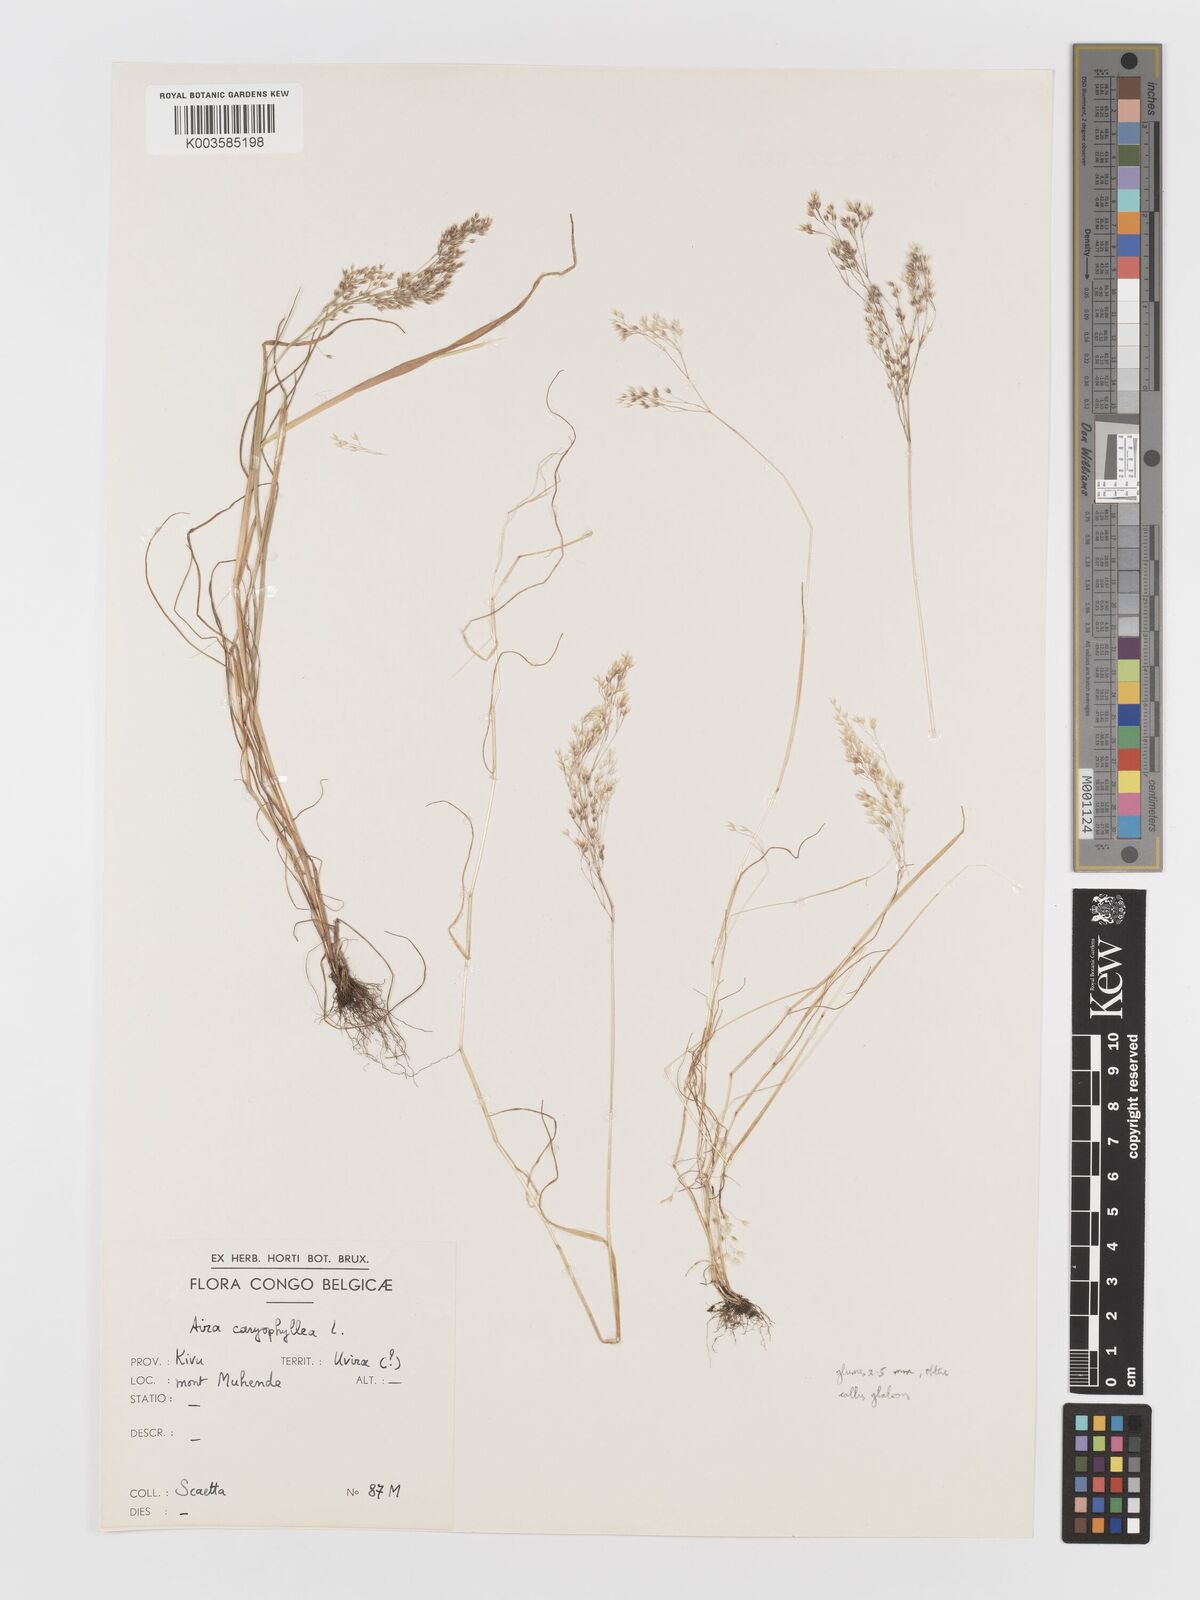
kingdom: Plantae
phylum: Tracheophyta
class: Liliopsida
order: Poales
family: Poaceae
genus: Aira
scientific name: Aira caryophyllea
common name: Silver hairgrass
